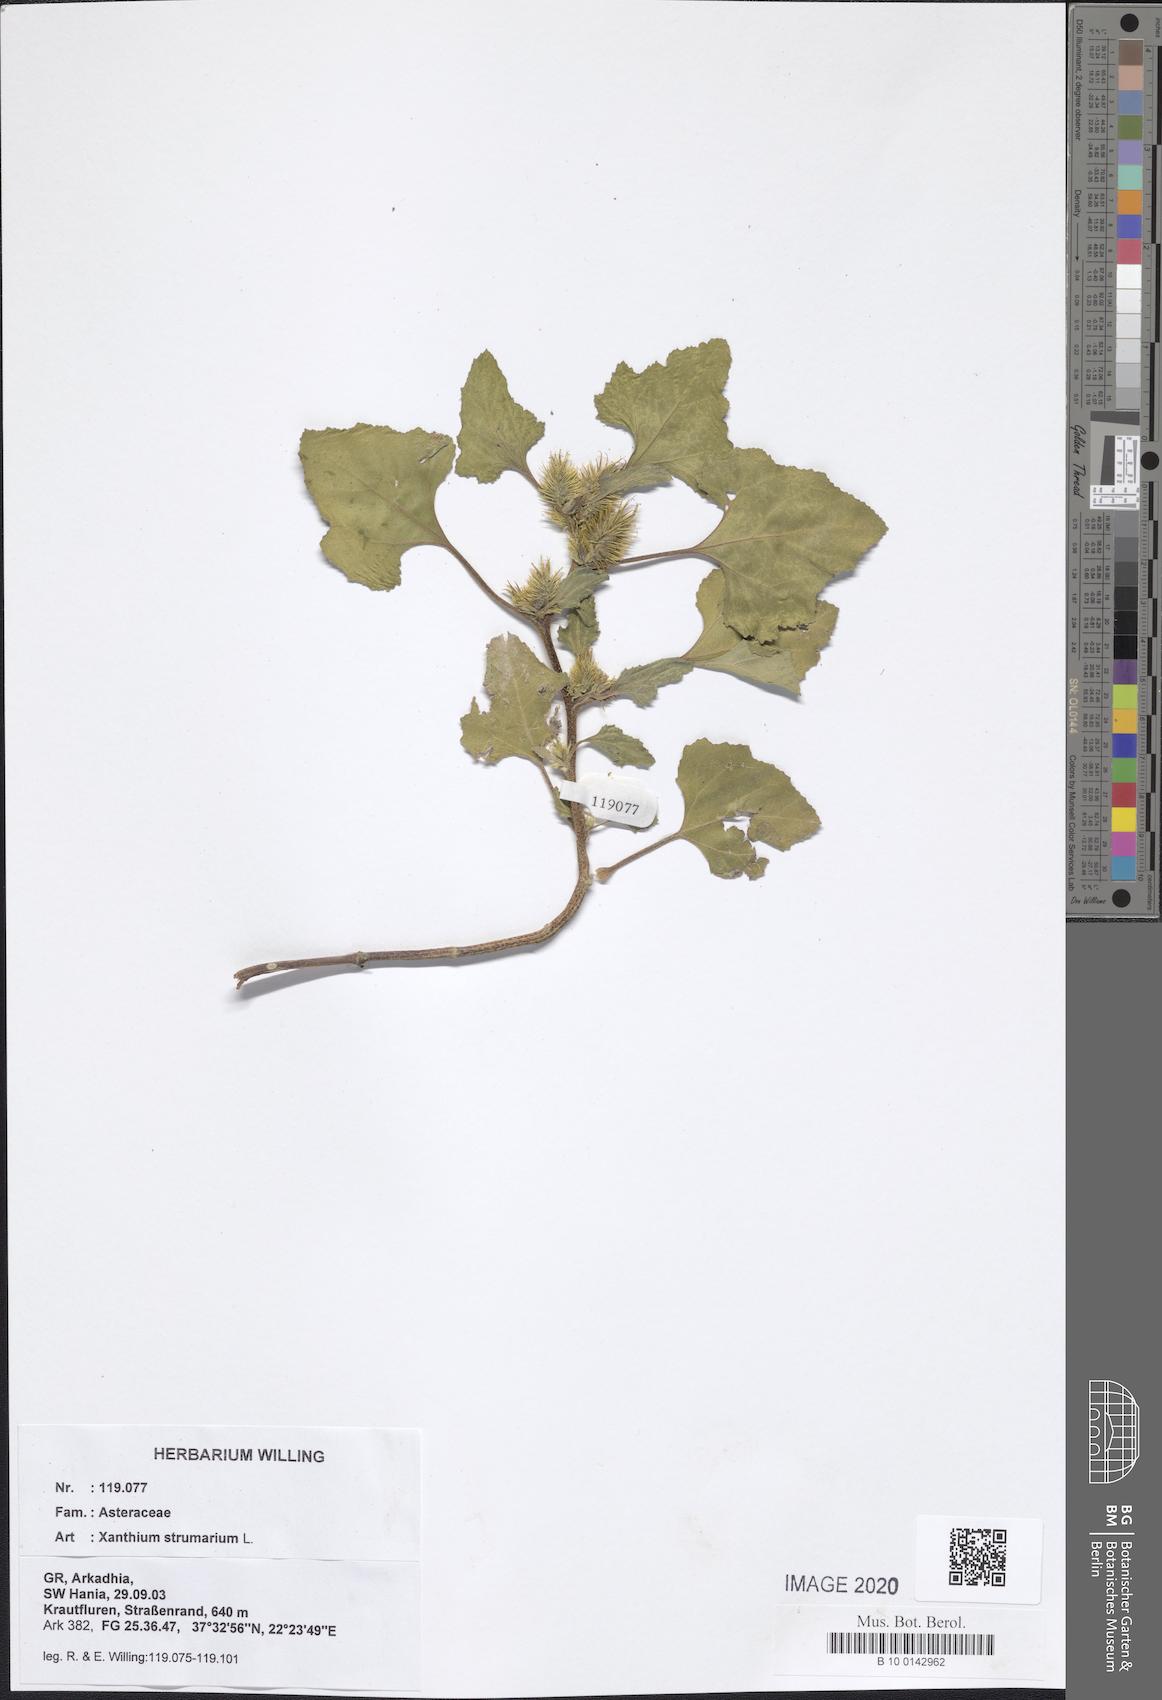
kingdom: Plantae
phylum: Tracheophyta
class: Magnoliopsida
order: Asterales
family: Asteraceae
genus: Xanthium
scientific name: Xanthium strumarium
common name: Rough cocklebur
